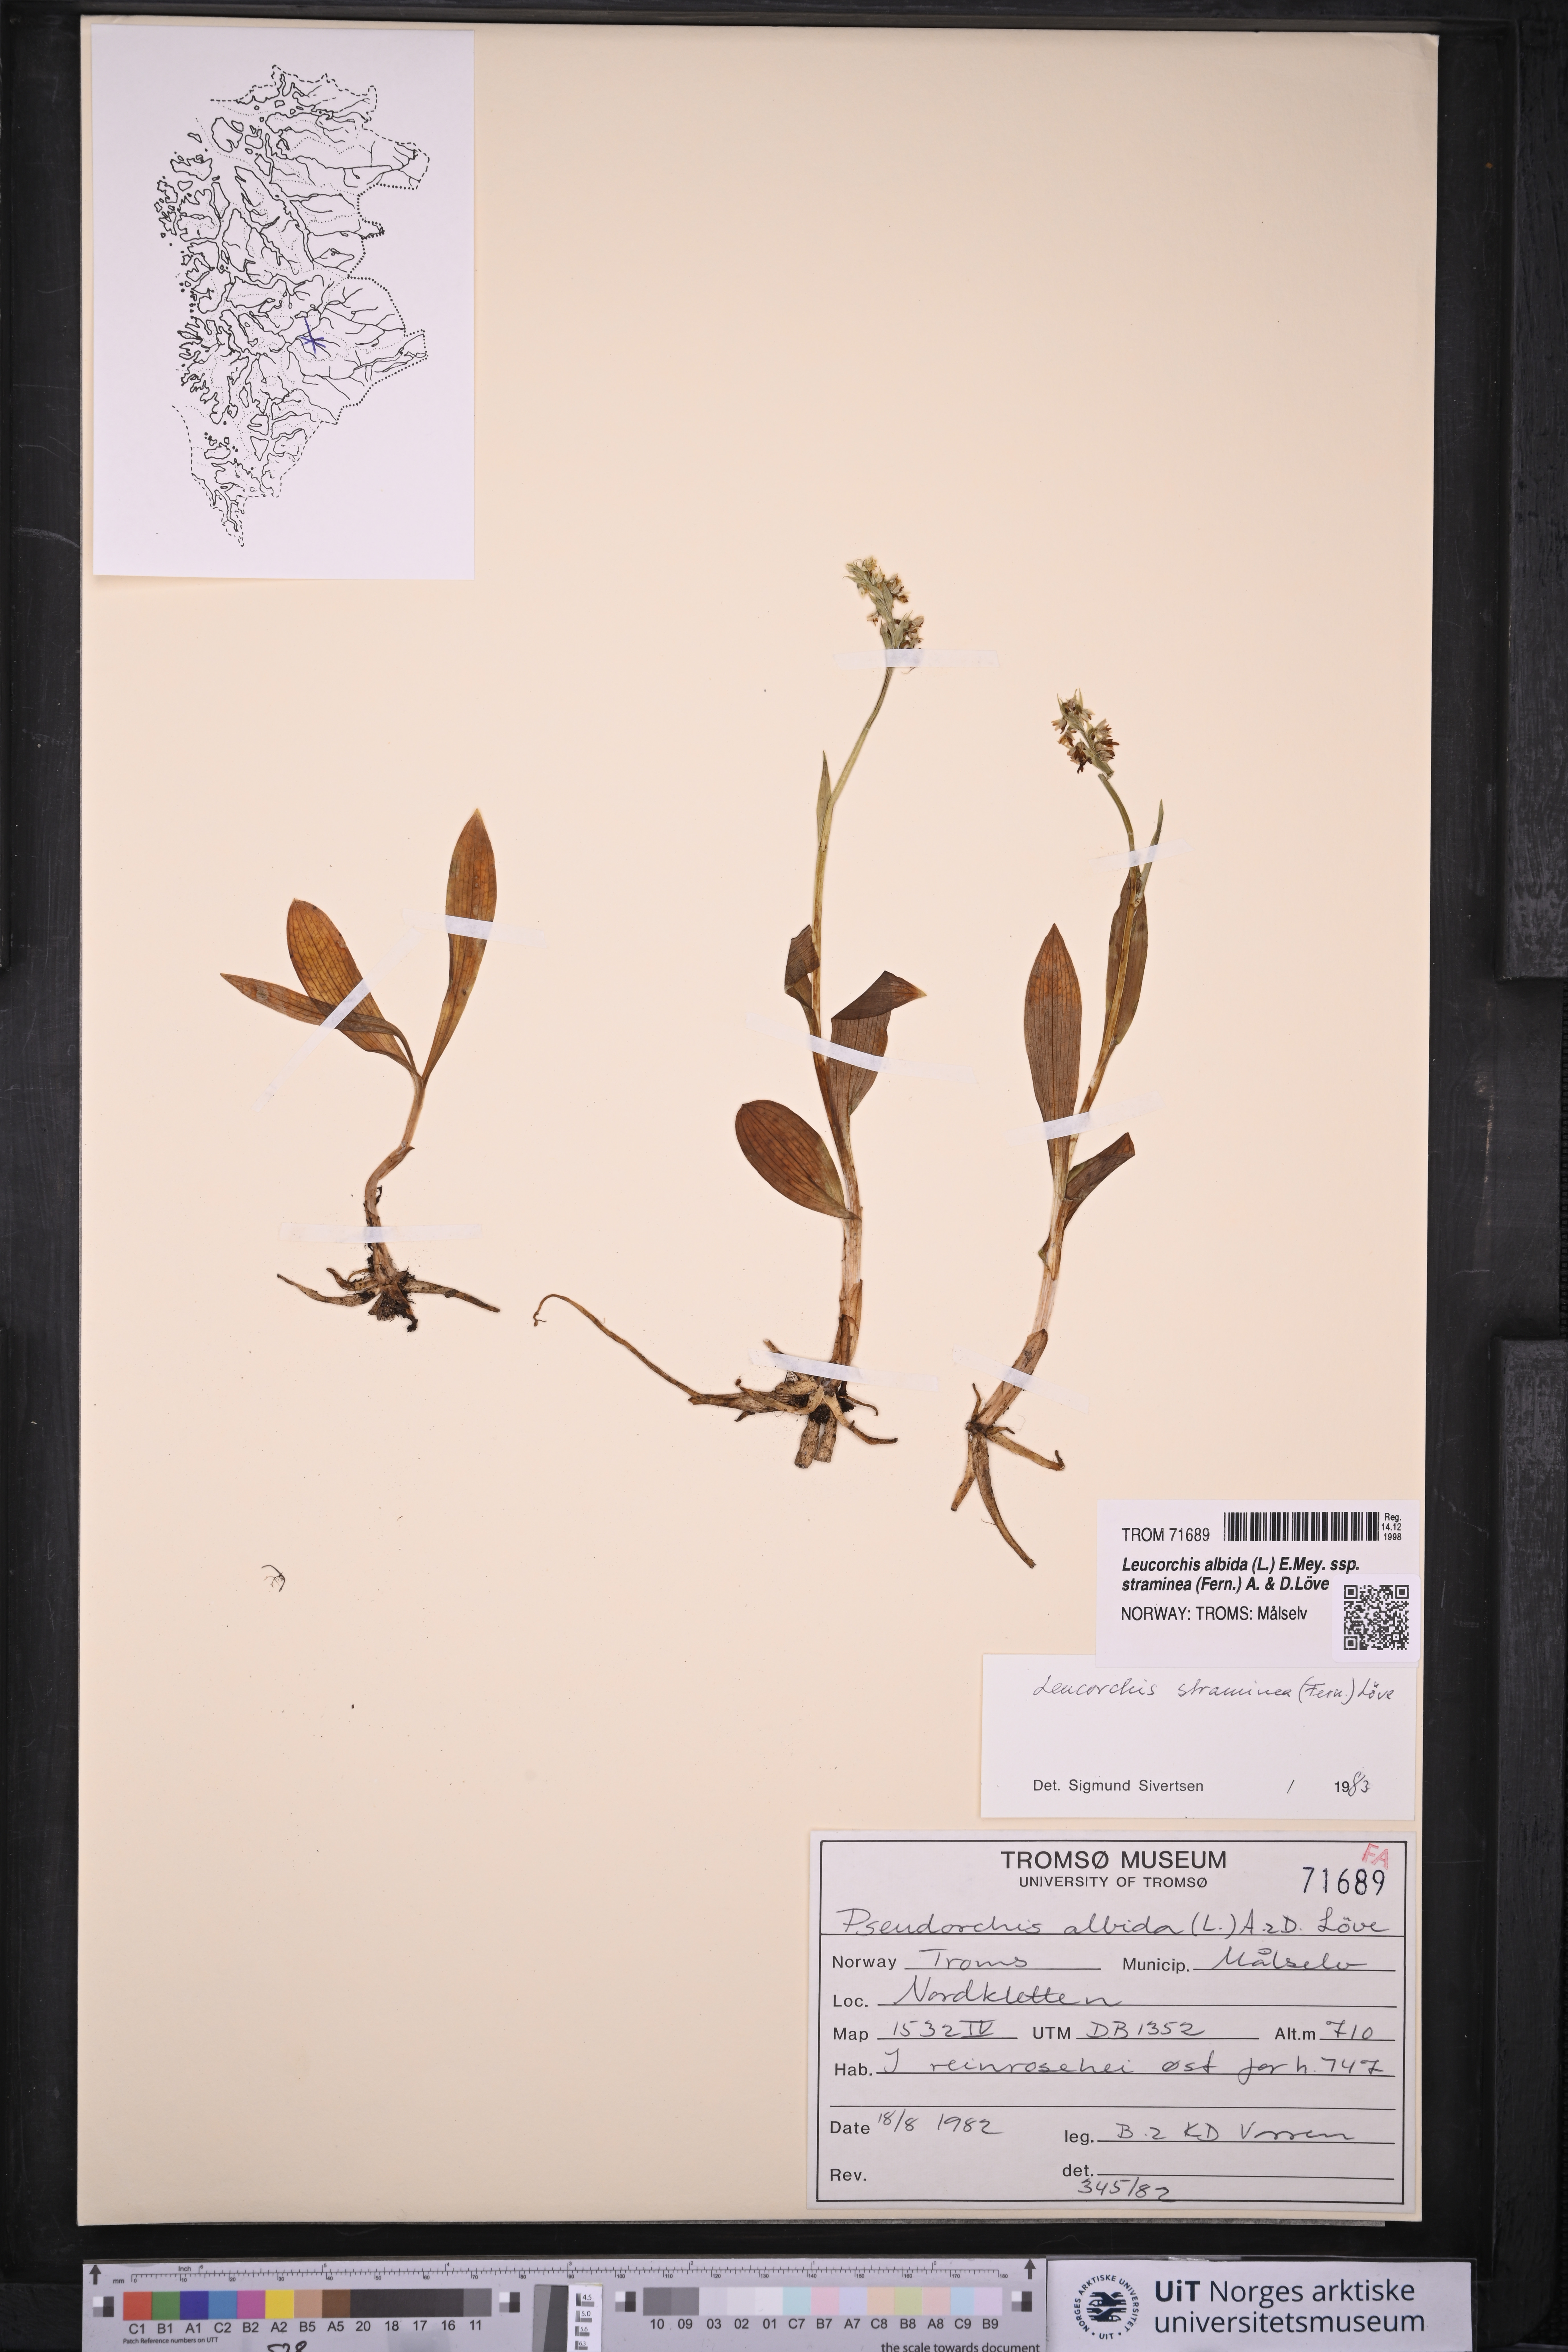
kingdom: Plantae
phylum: Tracheophyta
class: Liliopsida
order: Asparagales
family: Orchidaceae
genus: Pseudorchis
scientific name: Pseudorchis straminea
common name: Vanilla-scented bog orchid
